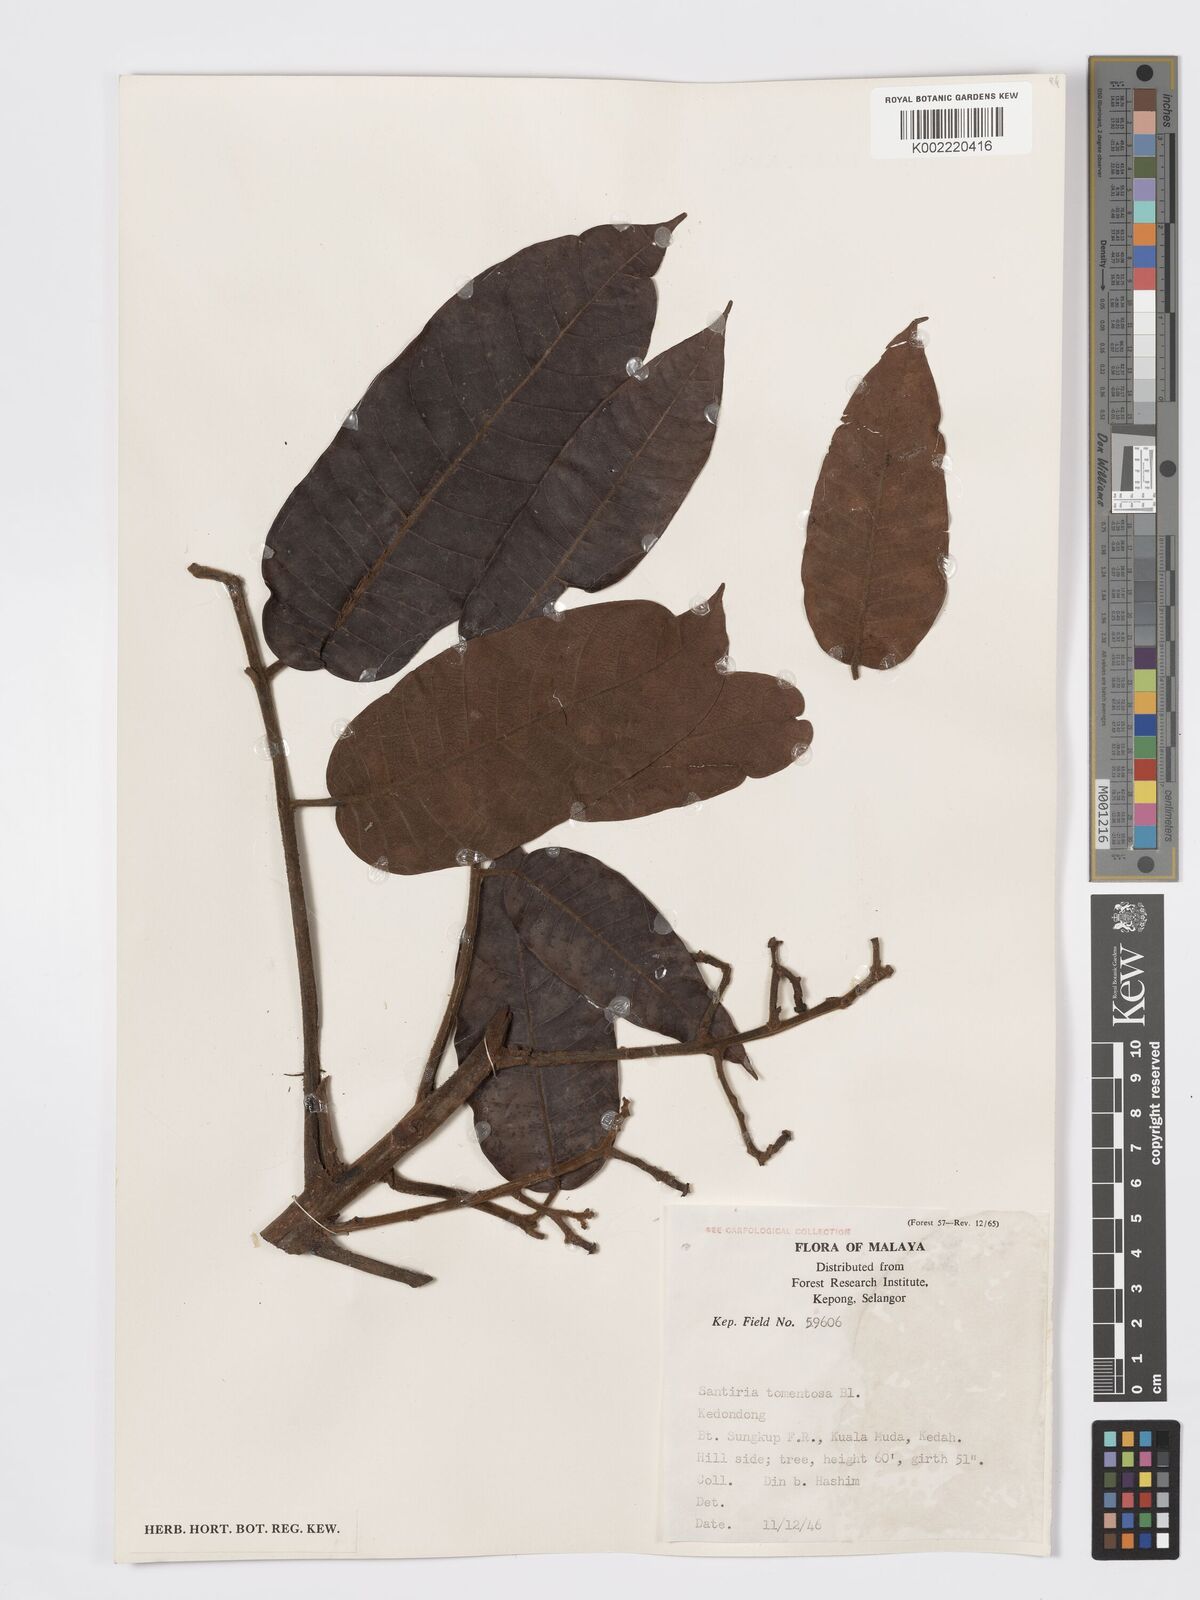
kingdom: Plantae
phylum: Tracheophyta
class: Magnoliopsida
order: Sapindales
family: Burseraceae
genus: Santiria
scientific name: Santiria tomentosa
